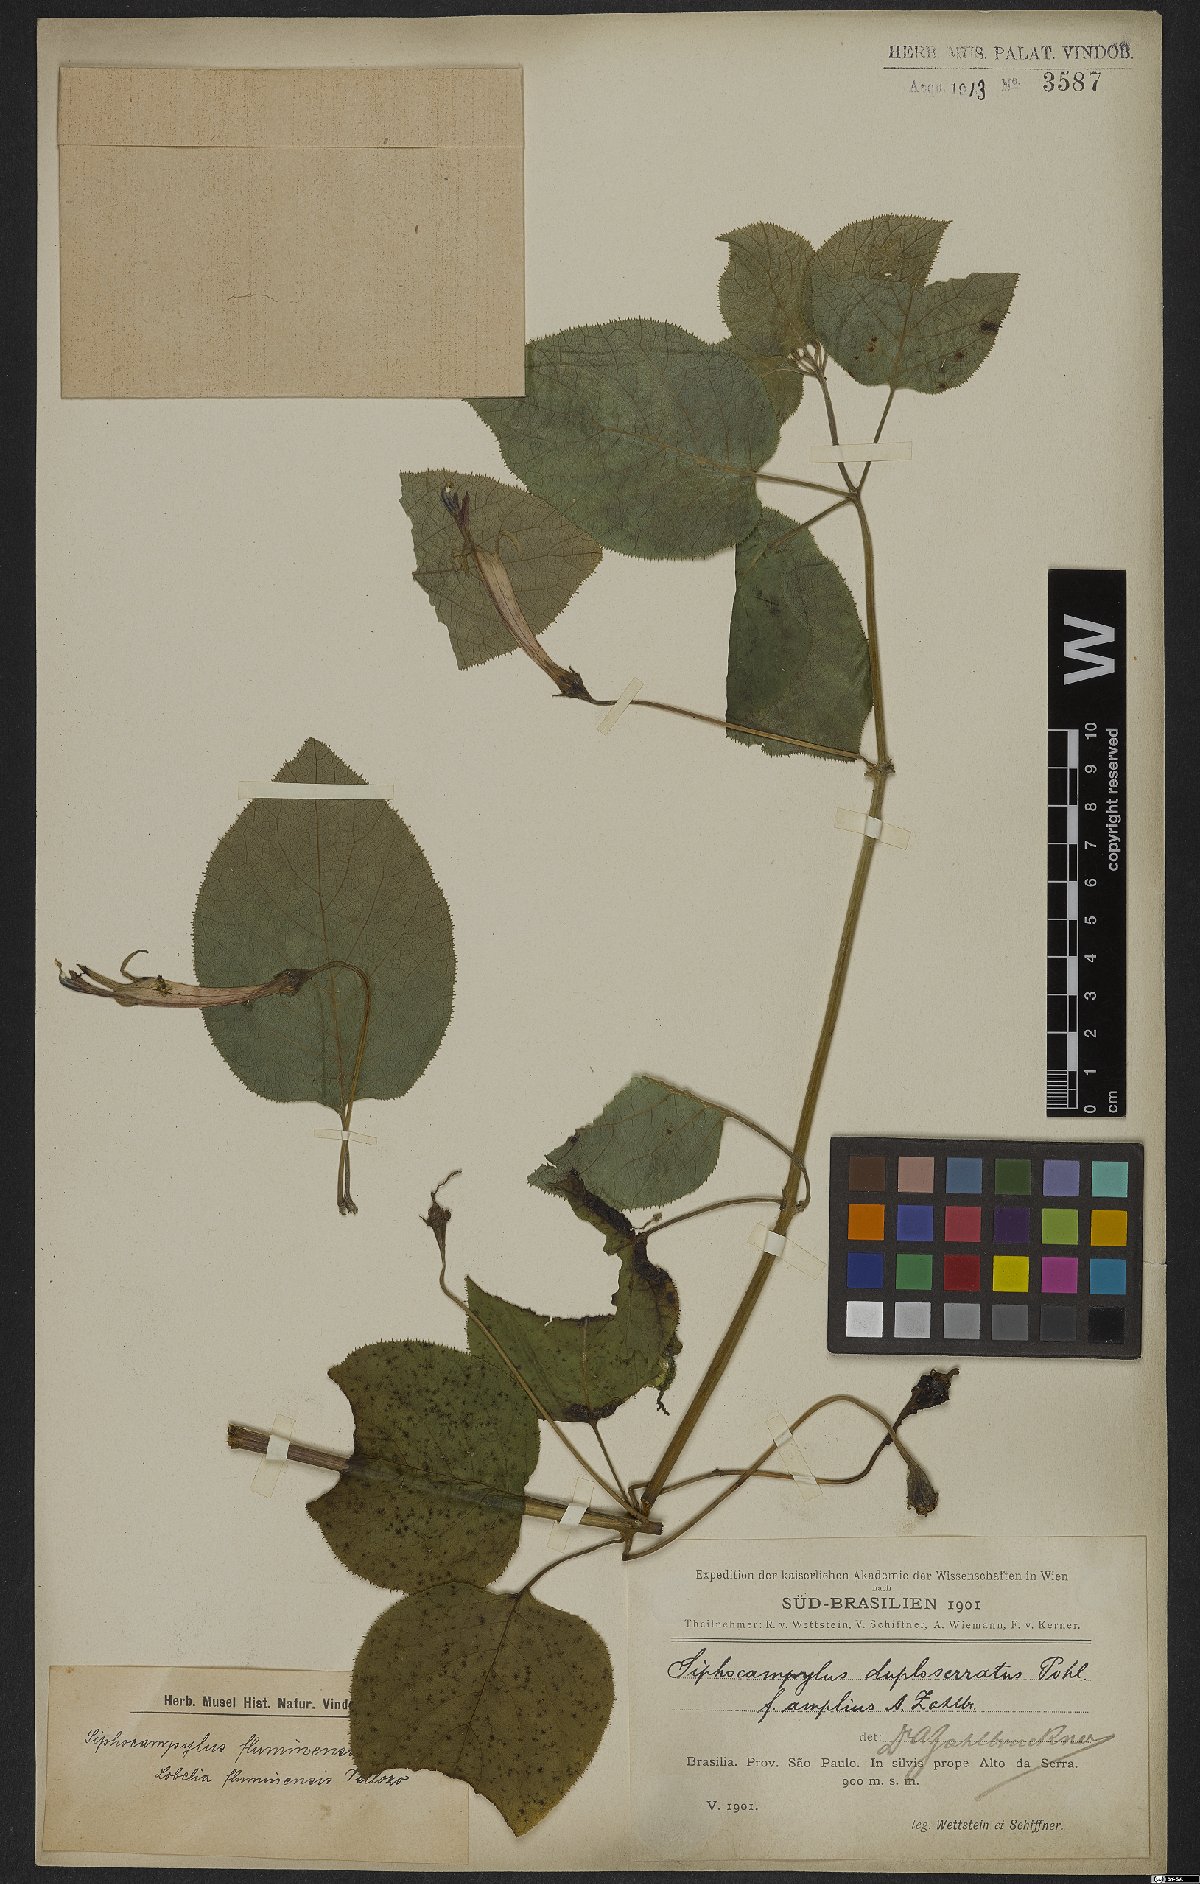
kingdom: Plantae
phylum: Tracheophyta
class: Magnoliopsida
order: Asterales
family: Campanulaceae
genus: Siphocampylus
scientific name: Siphocampylus fluminensis
